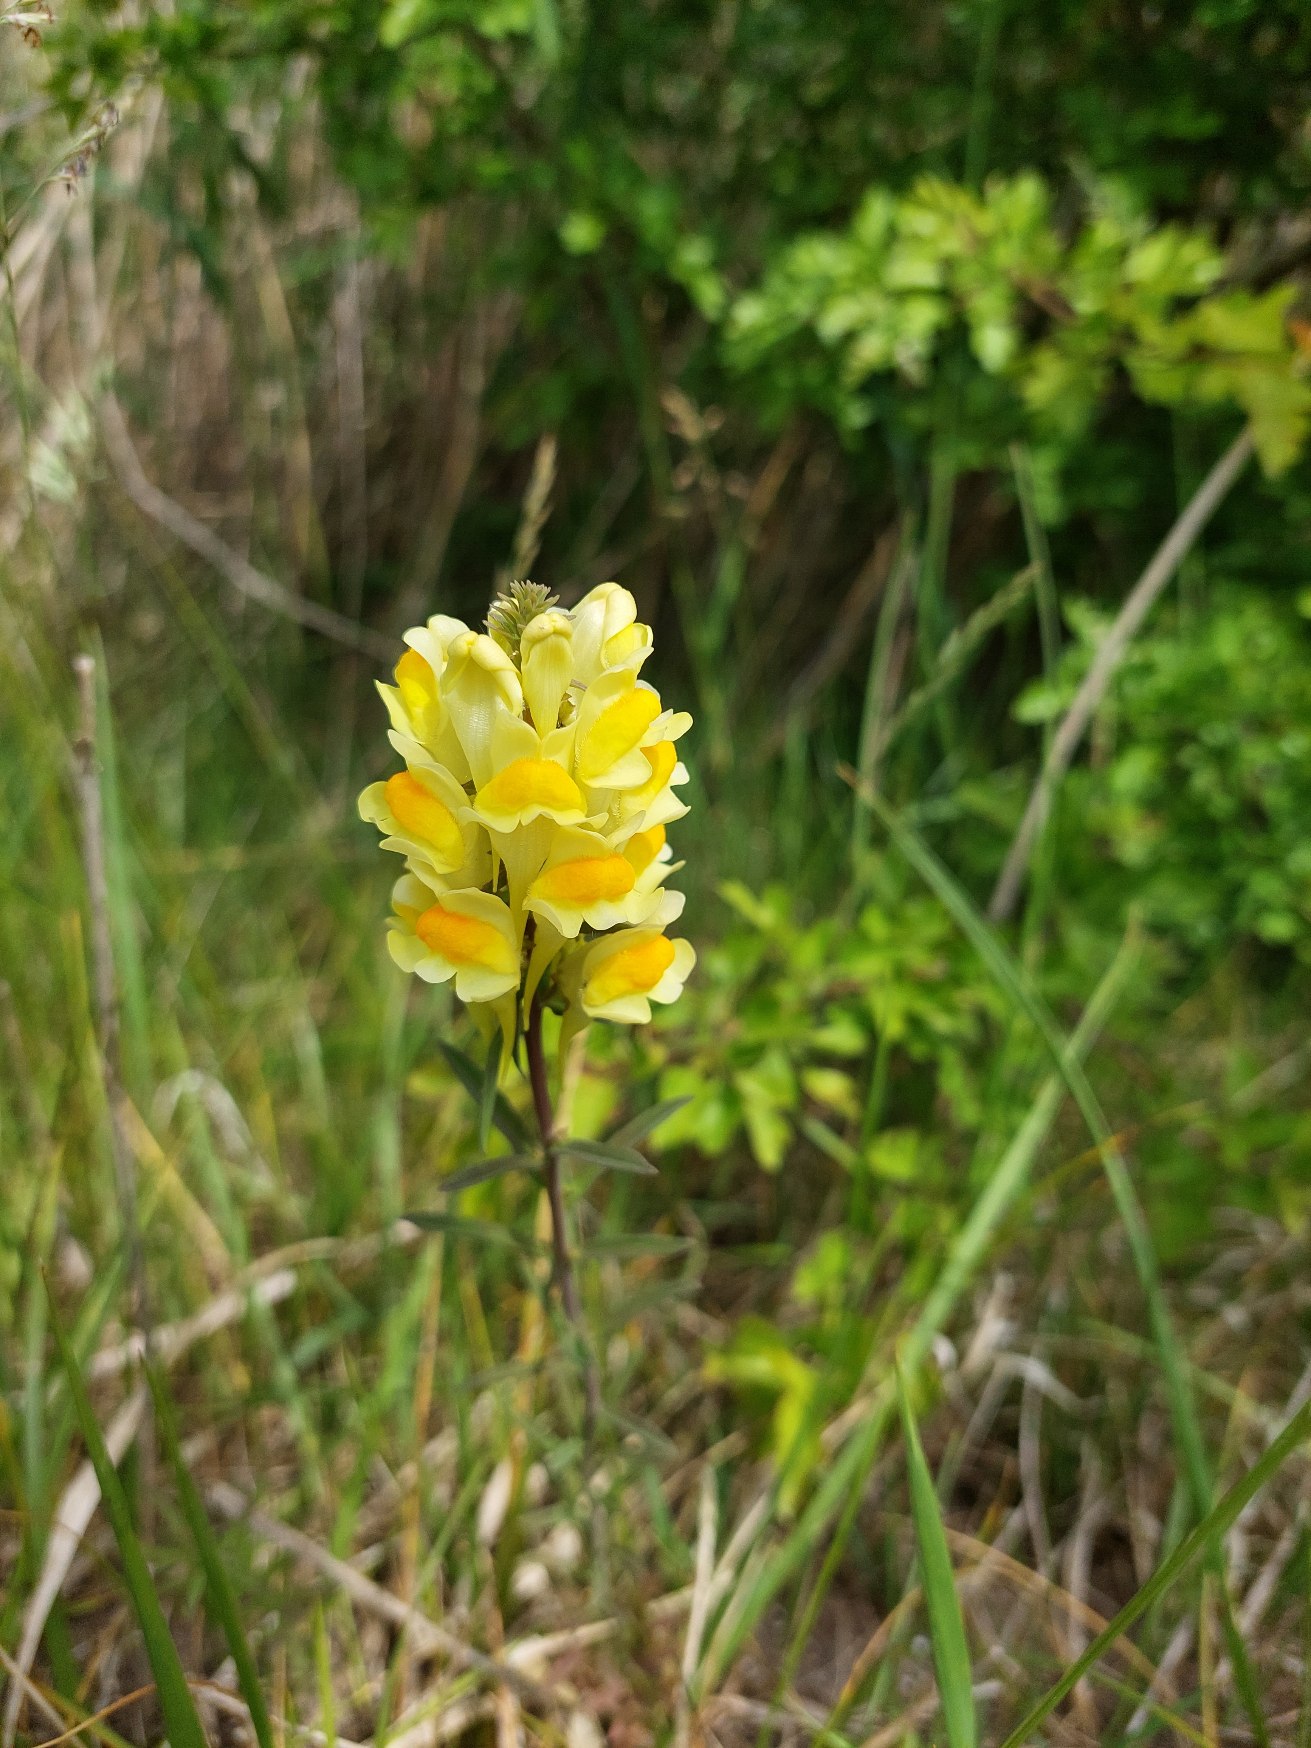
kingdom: Plantae
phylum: Tracheophyta
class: Magnoliopsida
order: Lamiales
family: Plantaginaceae
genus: Linaria
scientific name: Linaria vulgaris
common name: Almindelig torskemund
